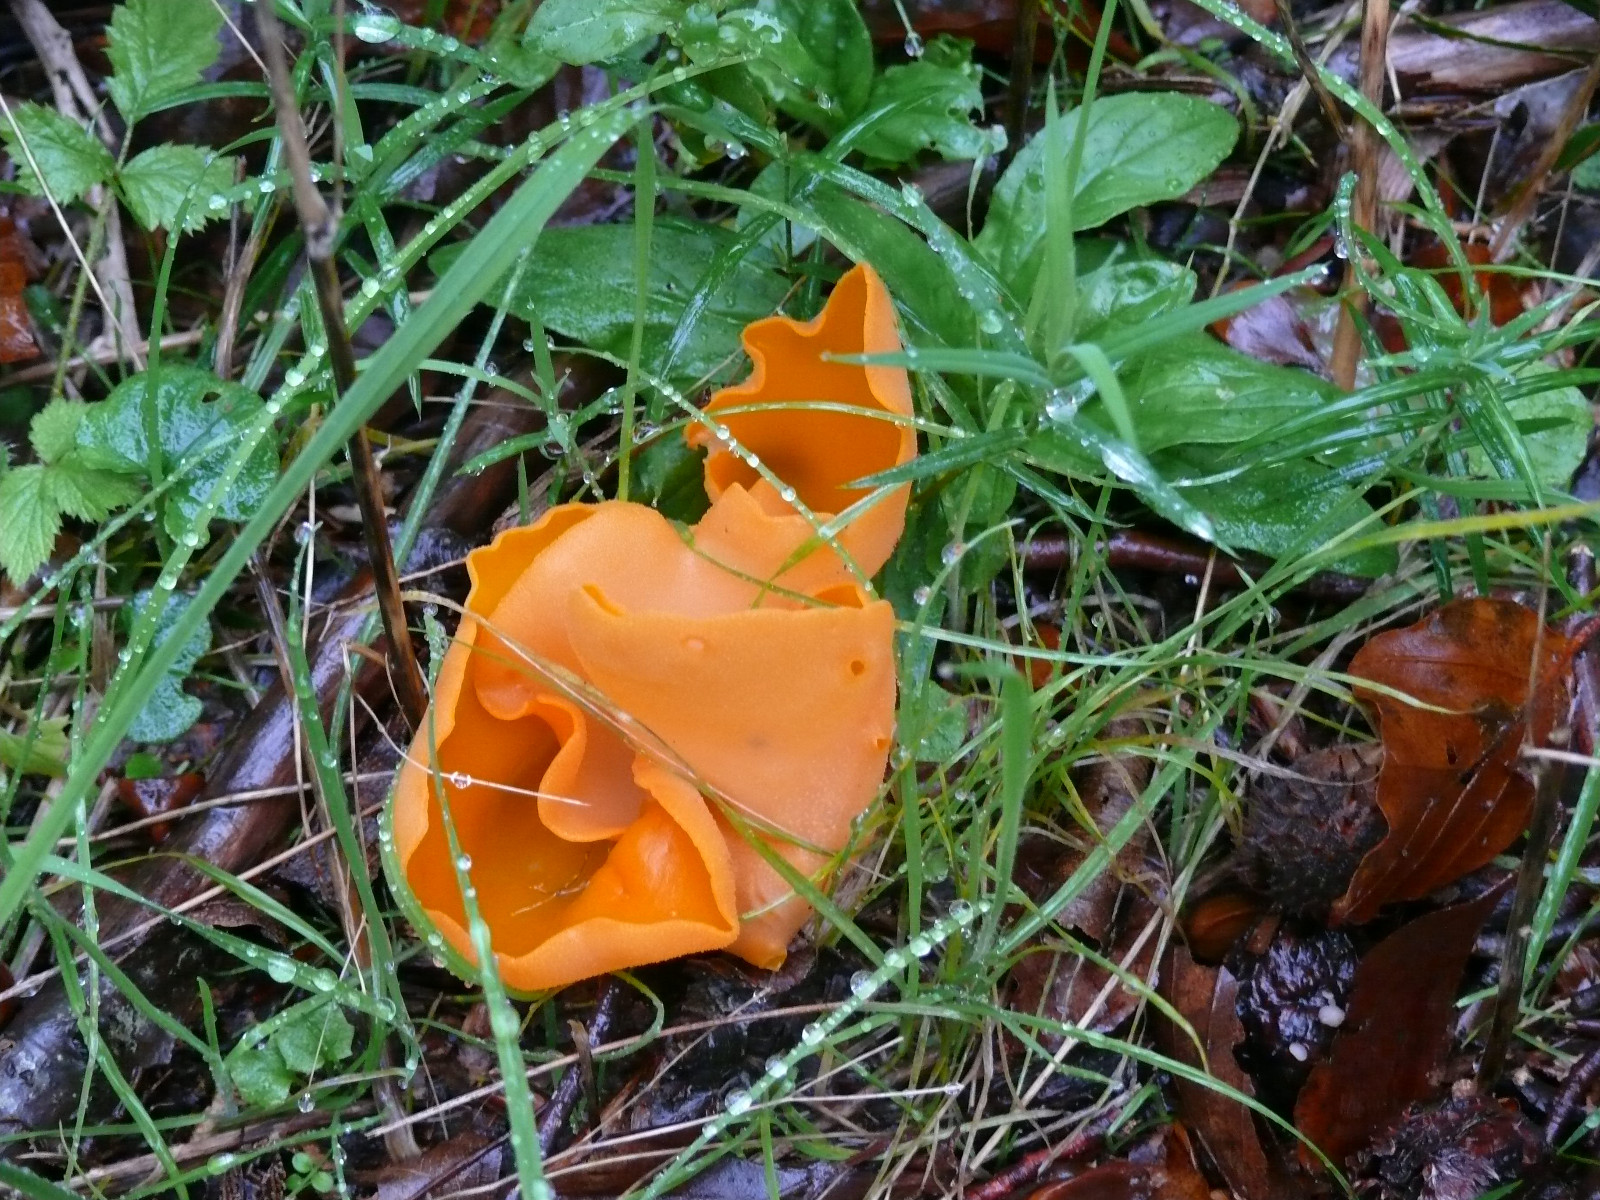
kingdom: Fungi
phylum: Ascomycota
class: Pezizomycetes
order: Pezizales
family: Pyronemataceae
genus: Aleuria
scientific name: Aleuria aurantia
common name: almindelig orangebæger
